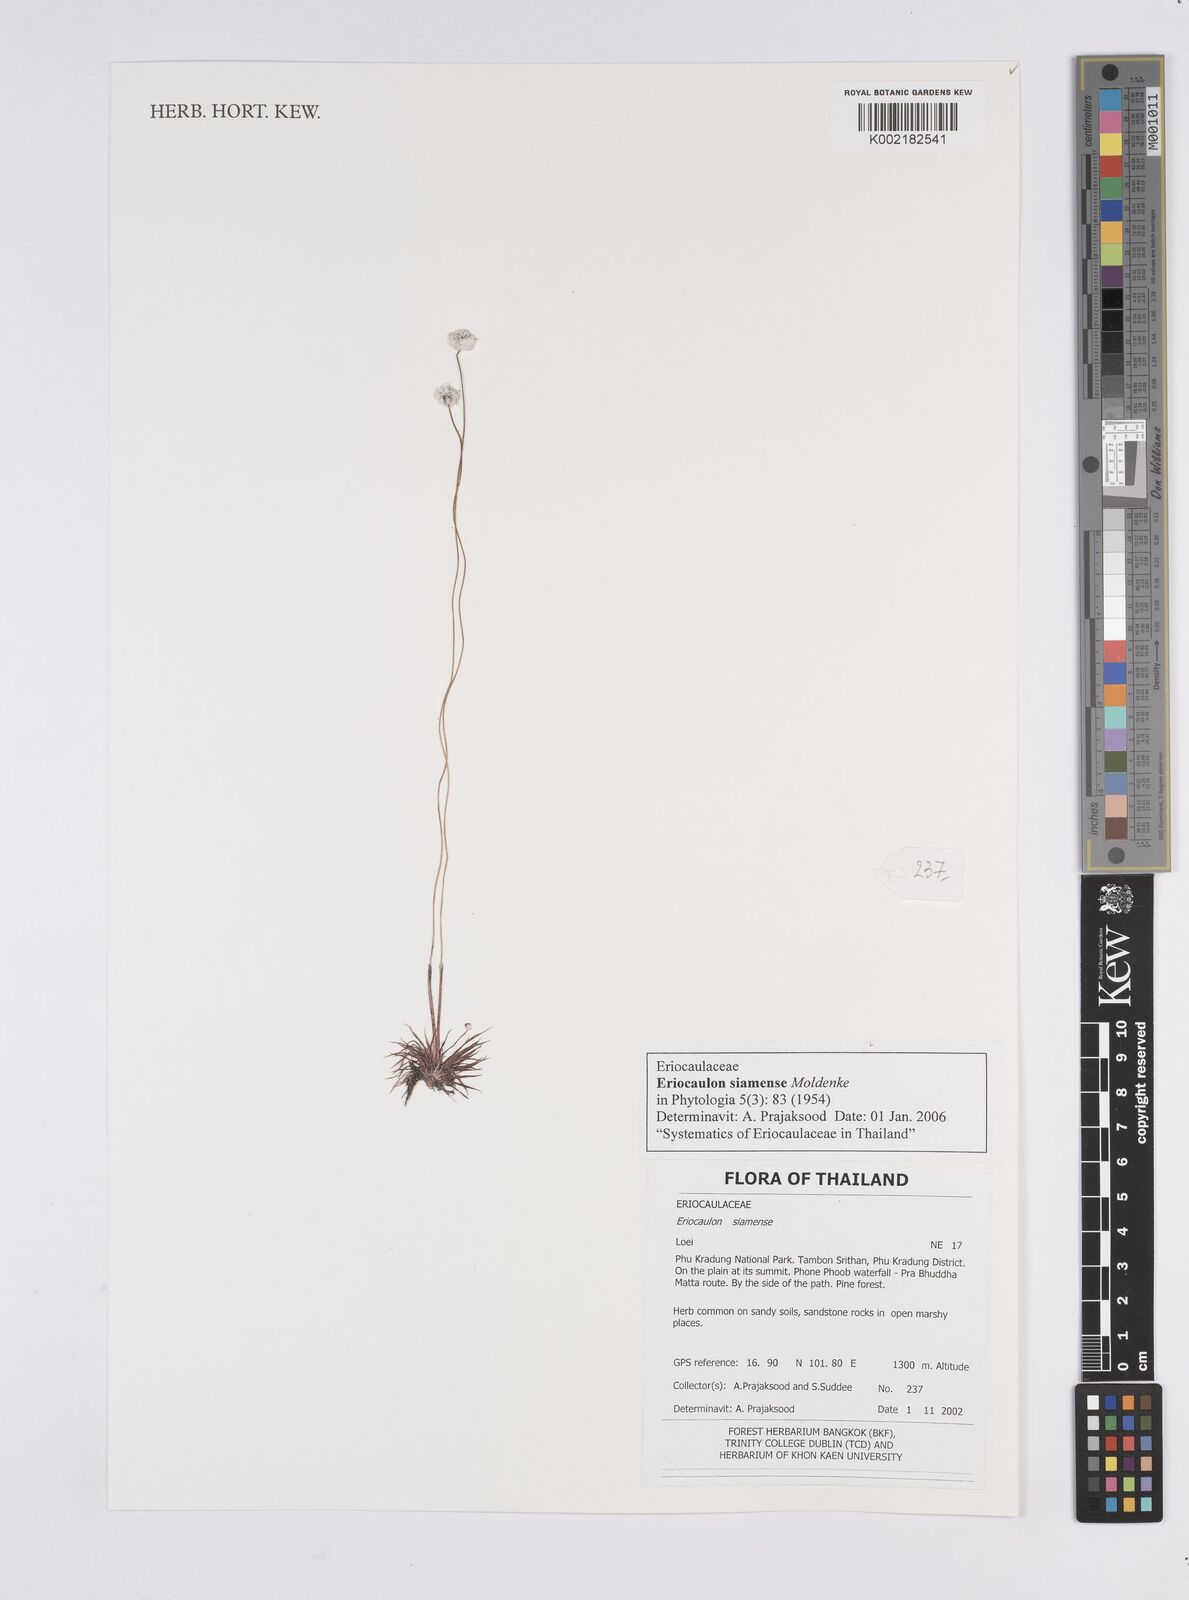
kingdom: Plantae
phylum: Tracheophyta
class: Liliopsida
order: Poales
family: Eriocaulaceae
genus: Eriocaulon
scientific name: Eriocaulon siamense
